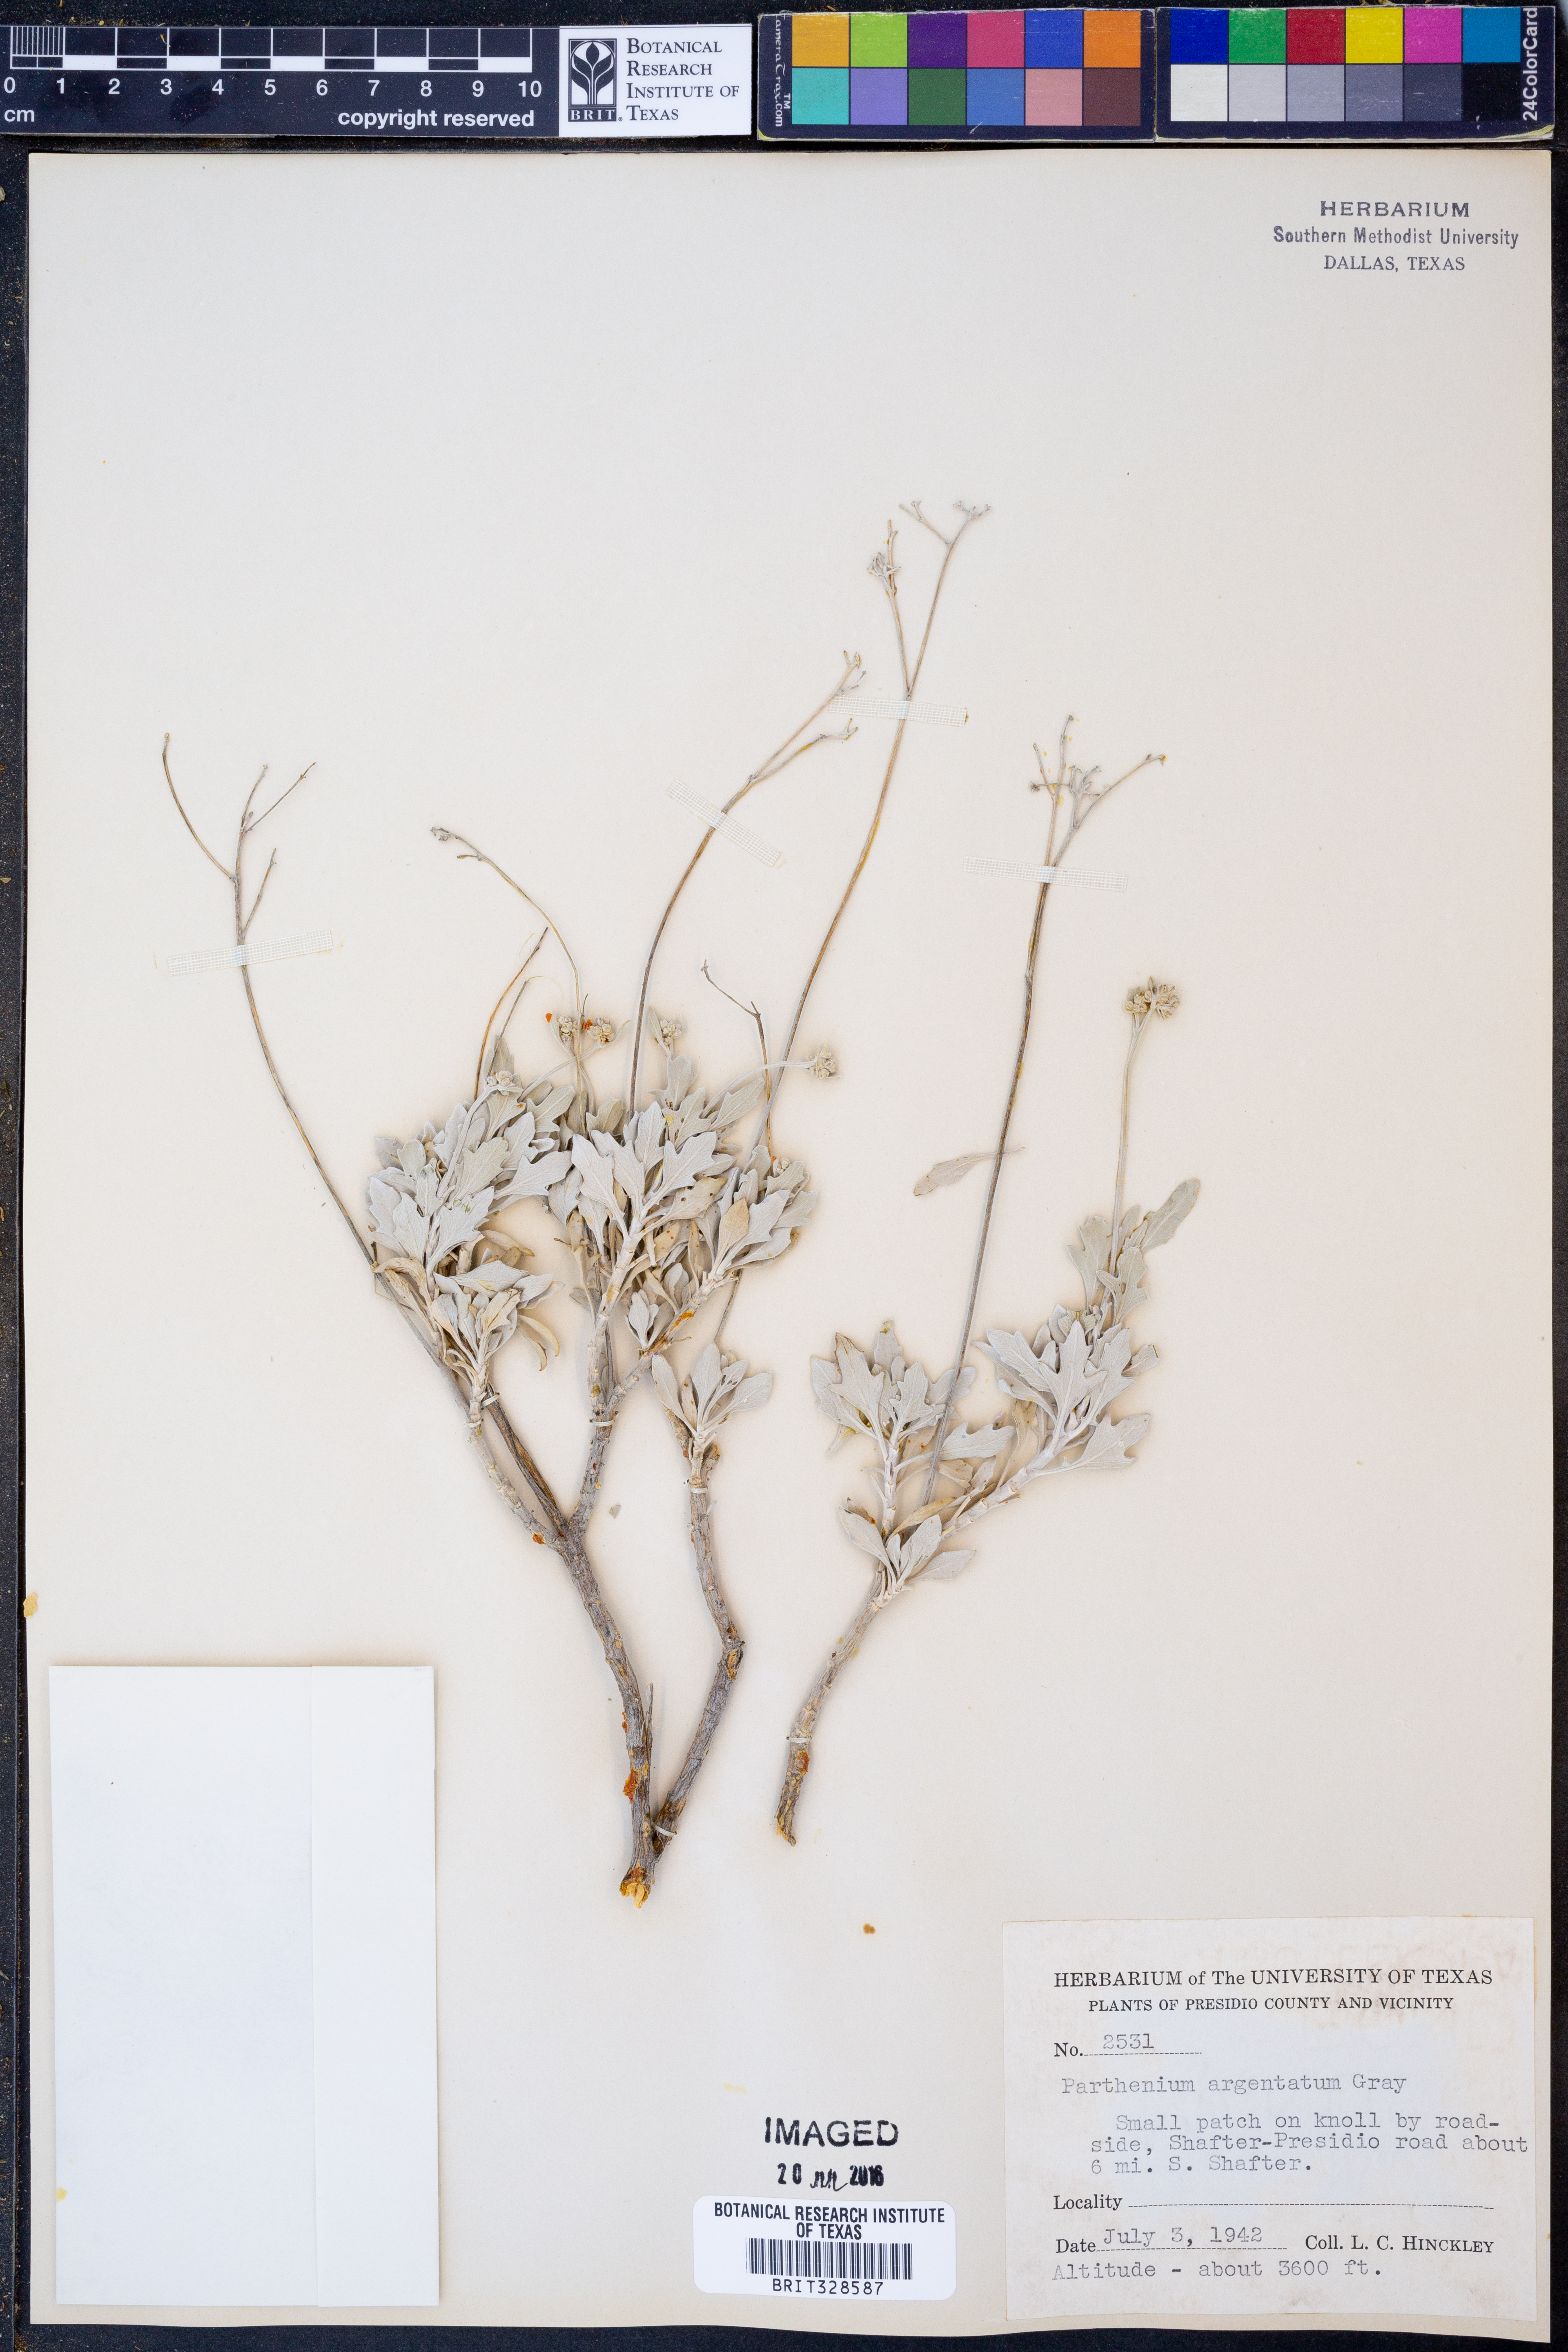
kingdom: Plantae
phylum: Tracheophyta
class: Magnoliopsida
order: Asterales
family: Asteraceae
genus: Parthenium
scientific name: Parthenium argentatum
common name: Guayule
